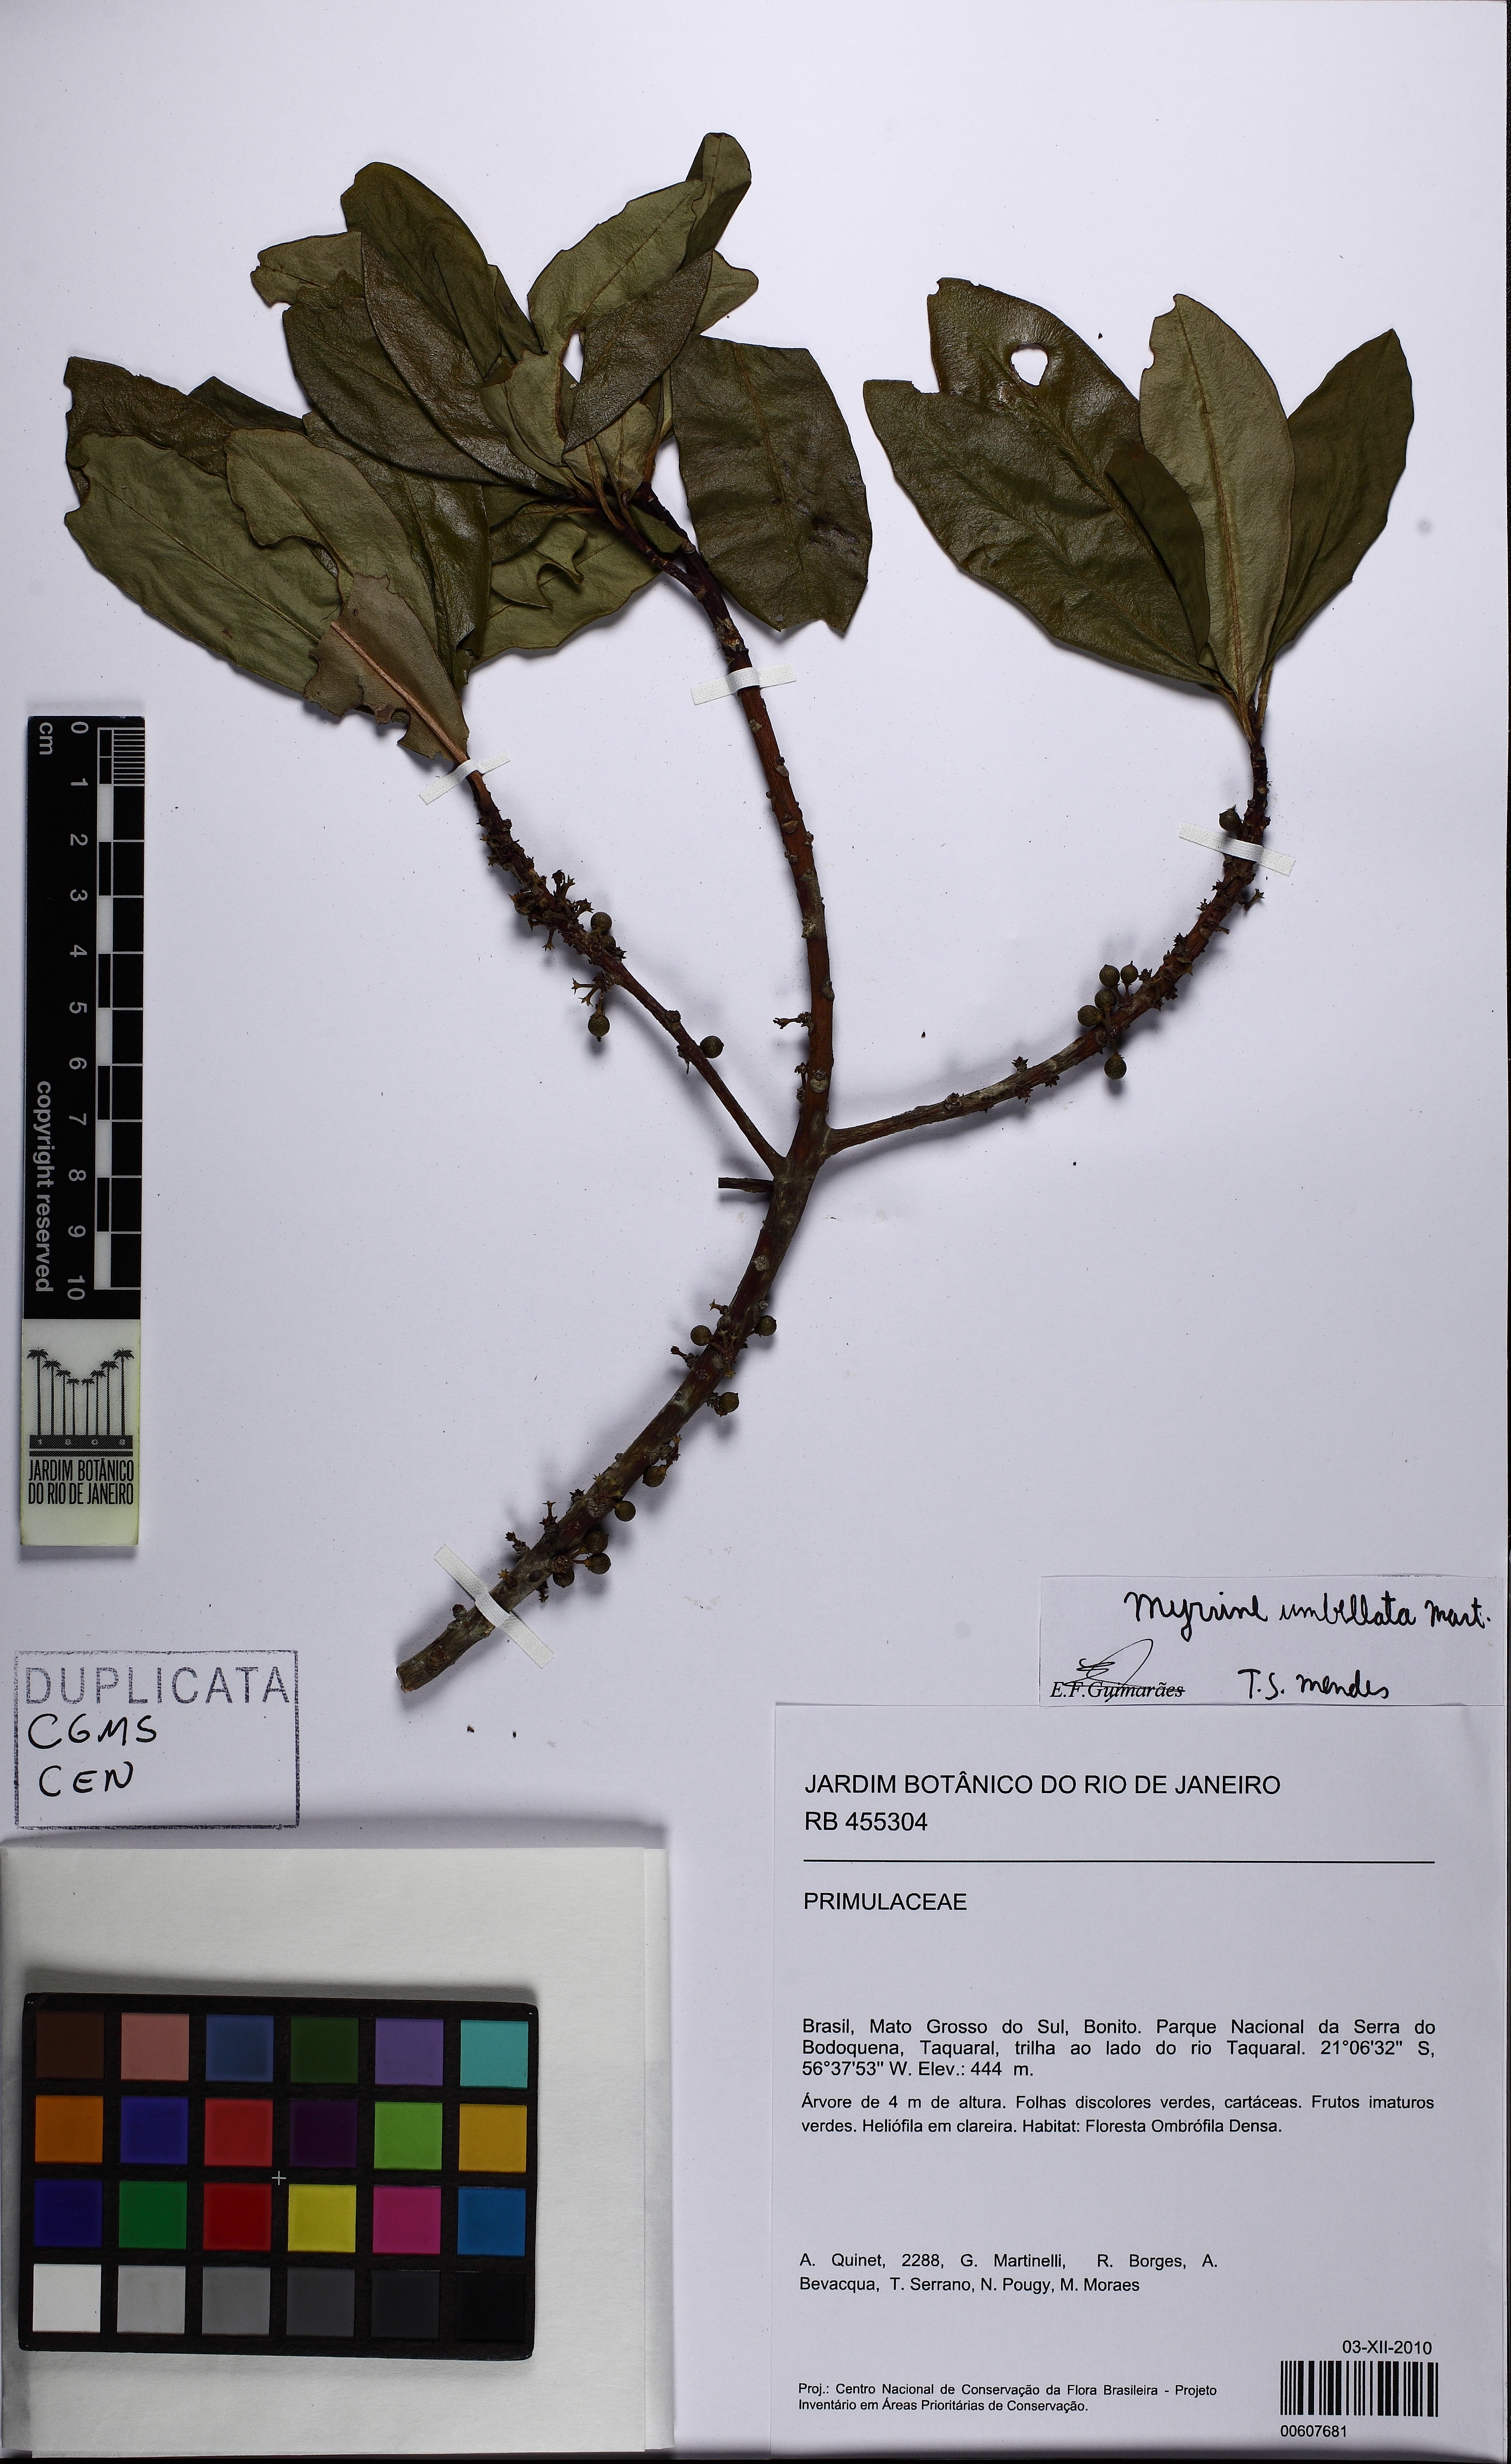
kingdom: Plantae
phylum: Tracheophyta
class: Magnoliopsida
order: Ericales
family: Primulaceae
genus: Myrsine
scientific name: Myrsine umbellata
